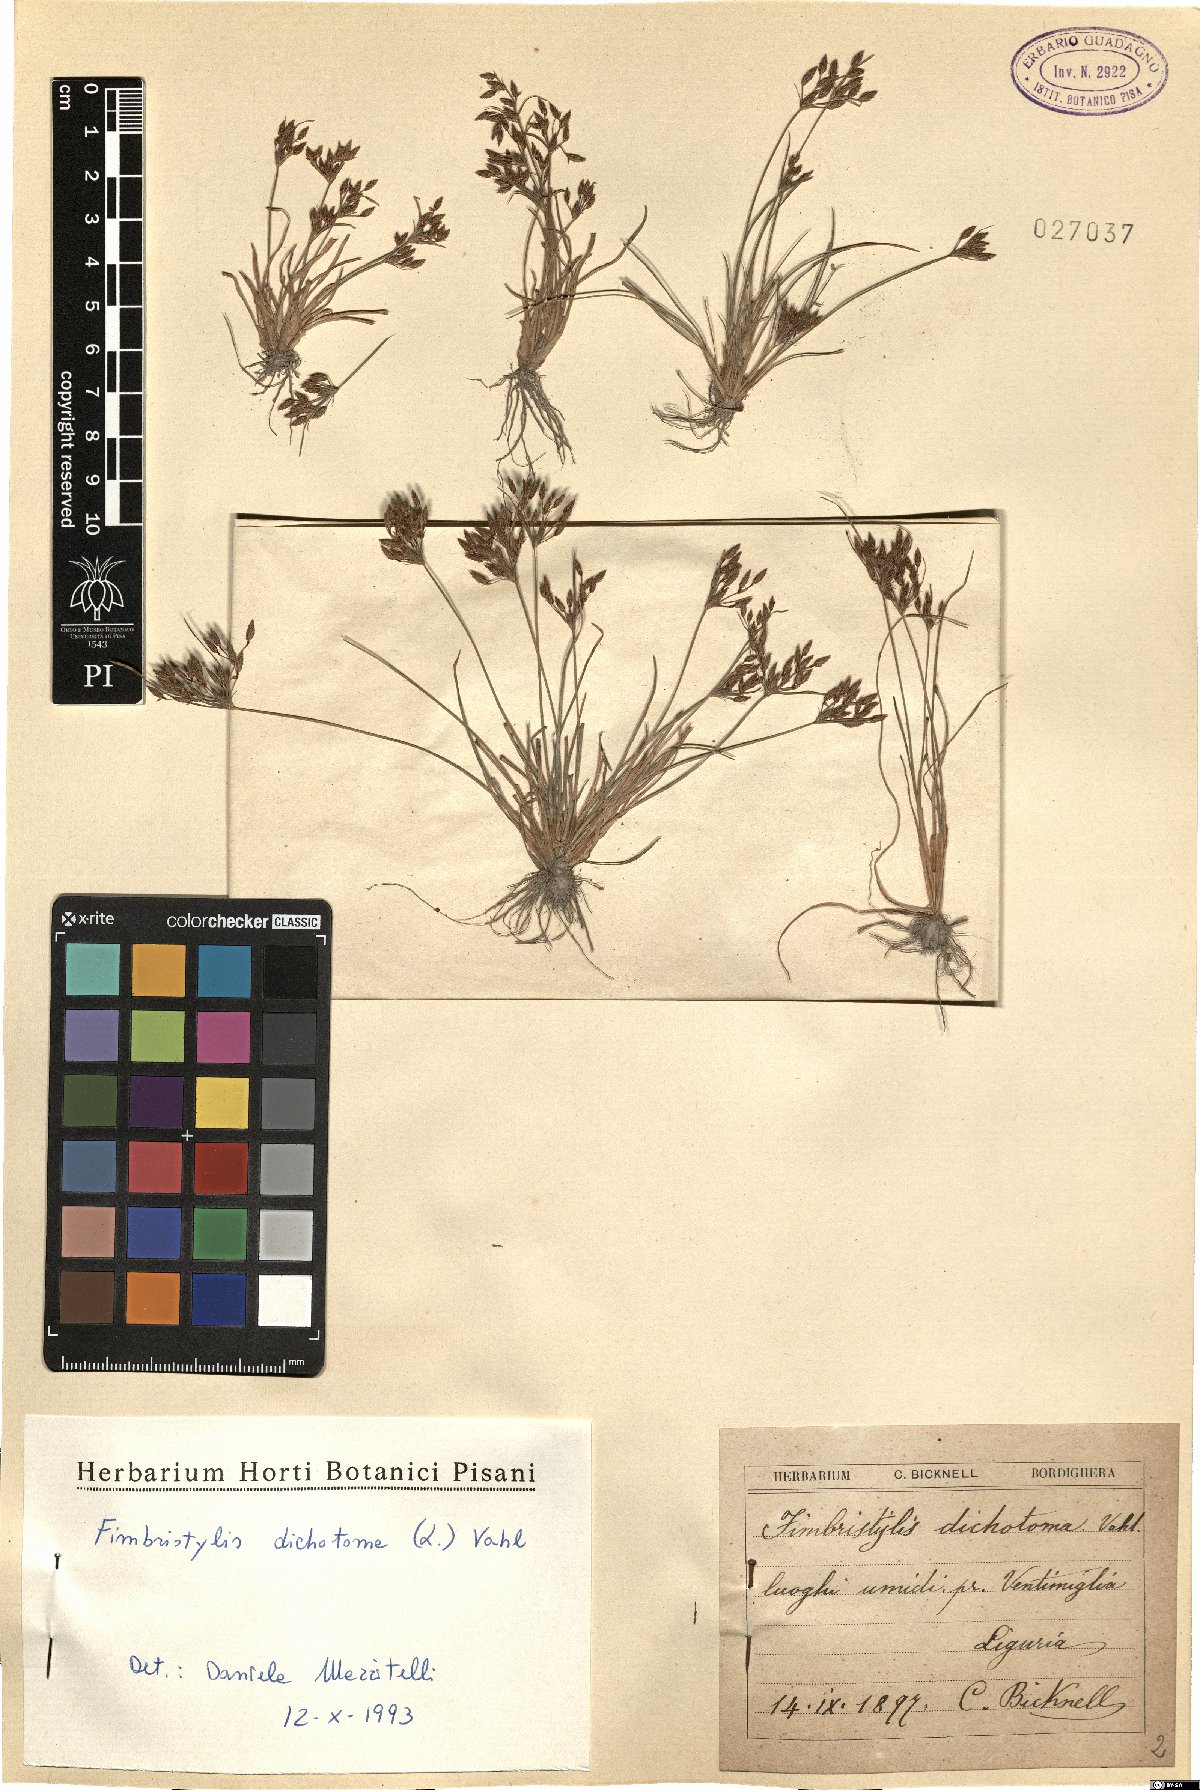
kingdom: Plantae
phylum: Tracheophyta
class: Liliopsida
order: Poales
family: Cyperaceae
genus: Fimbristylis
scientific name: Fimbristylis dichotoma
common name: Forked fimbry
